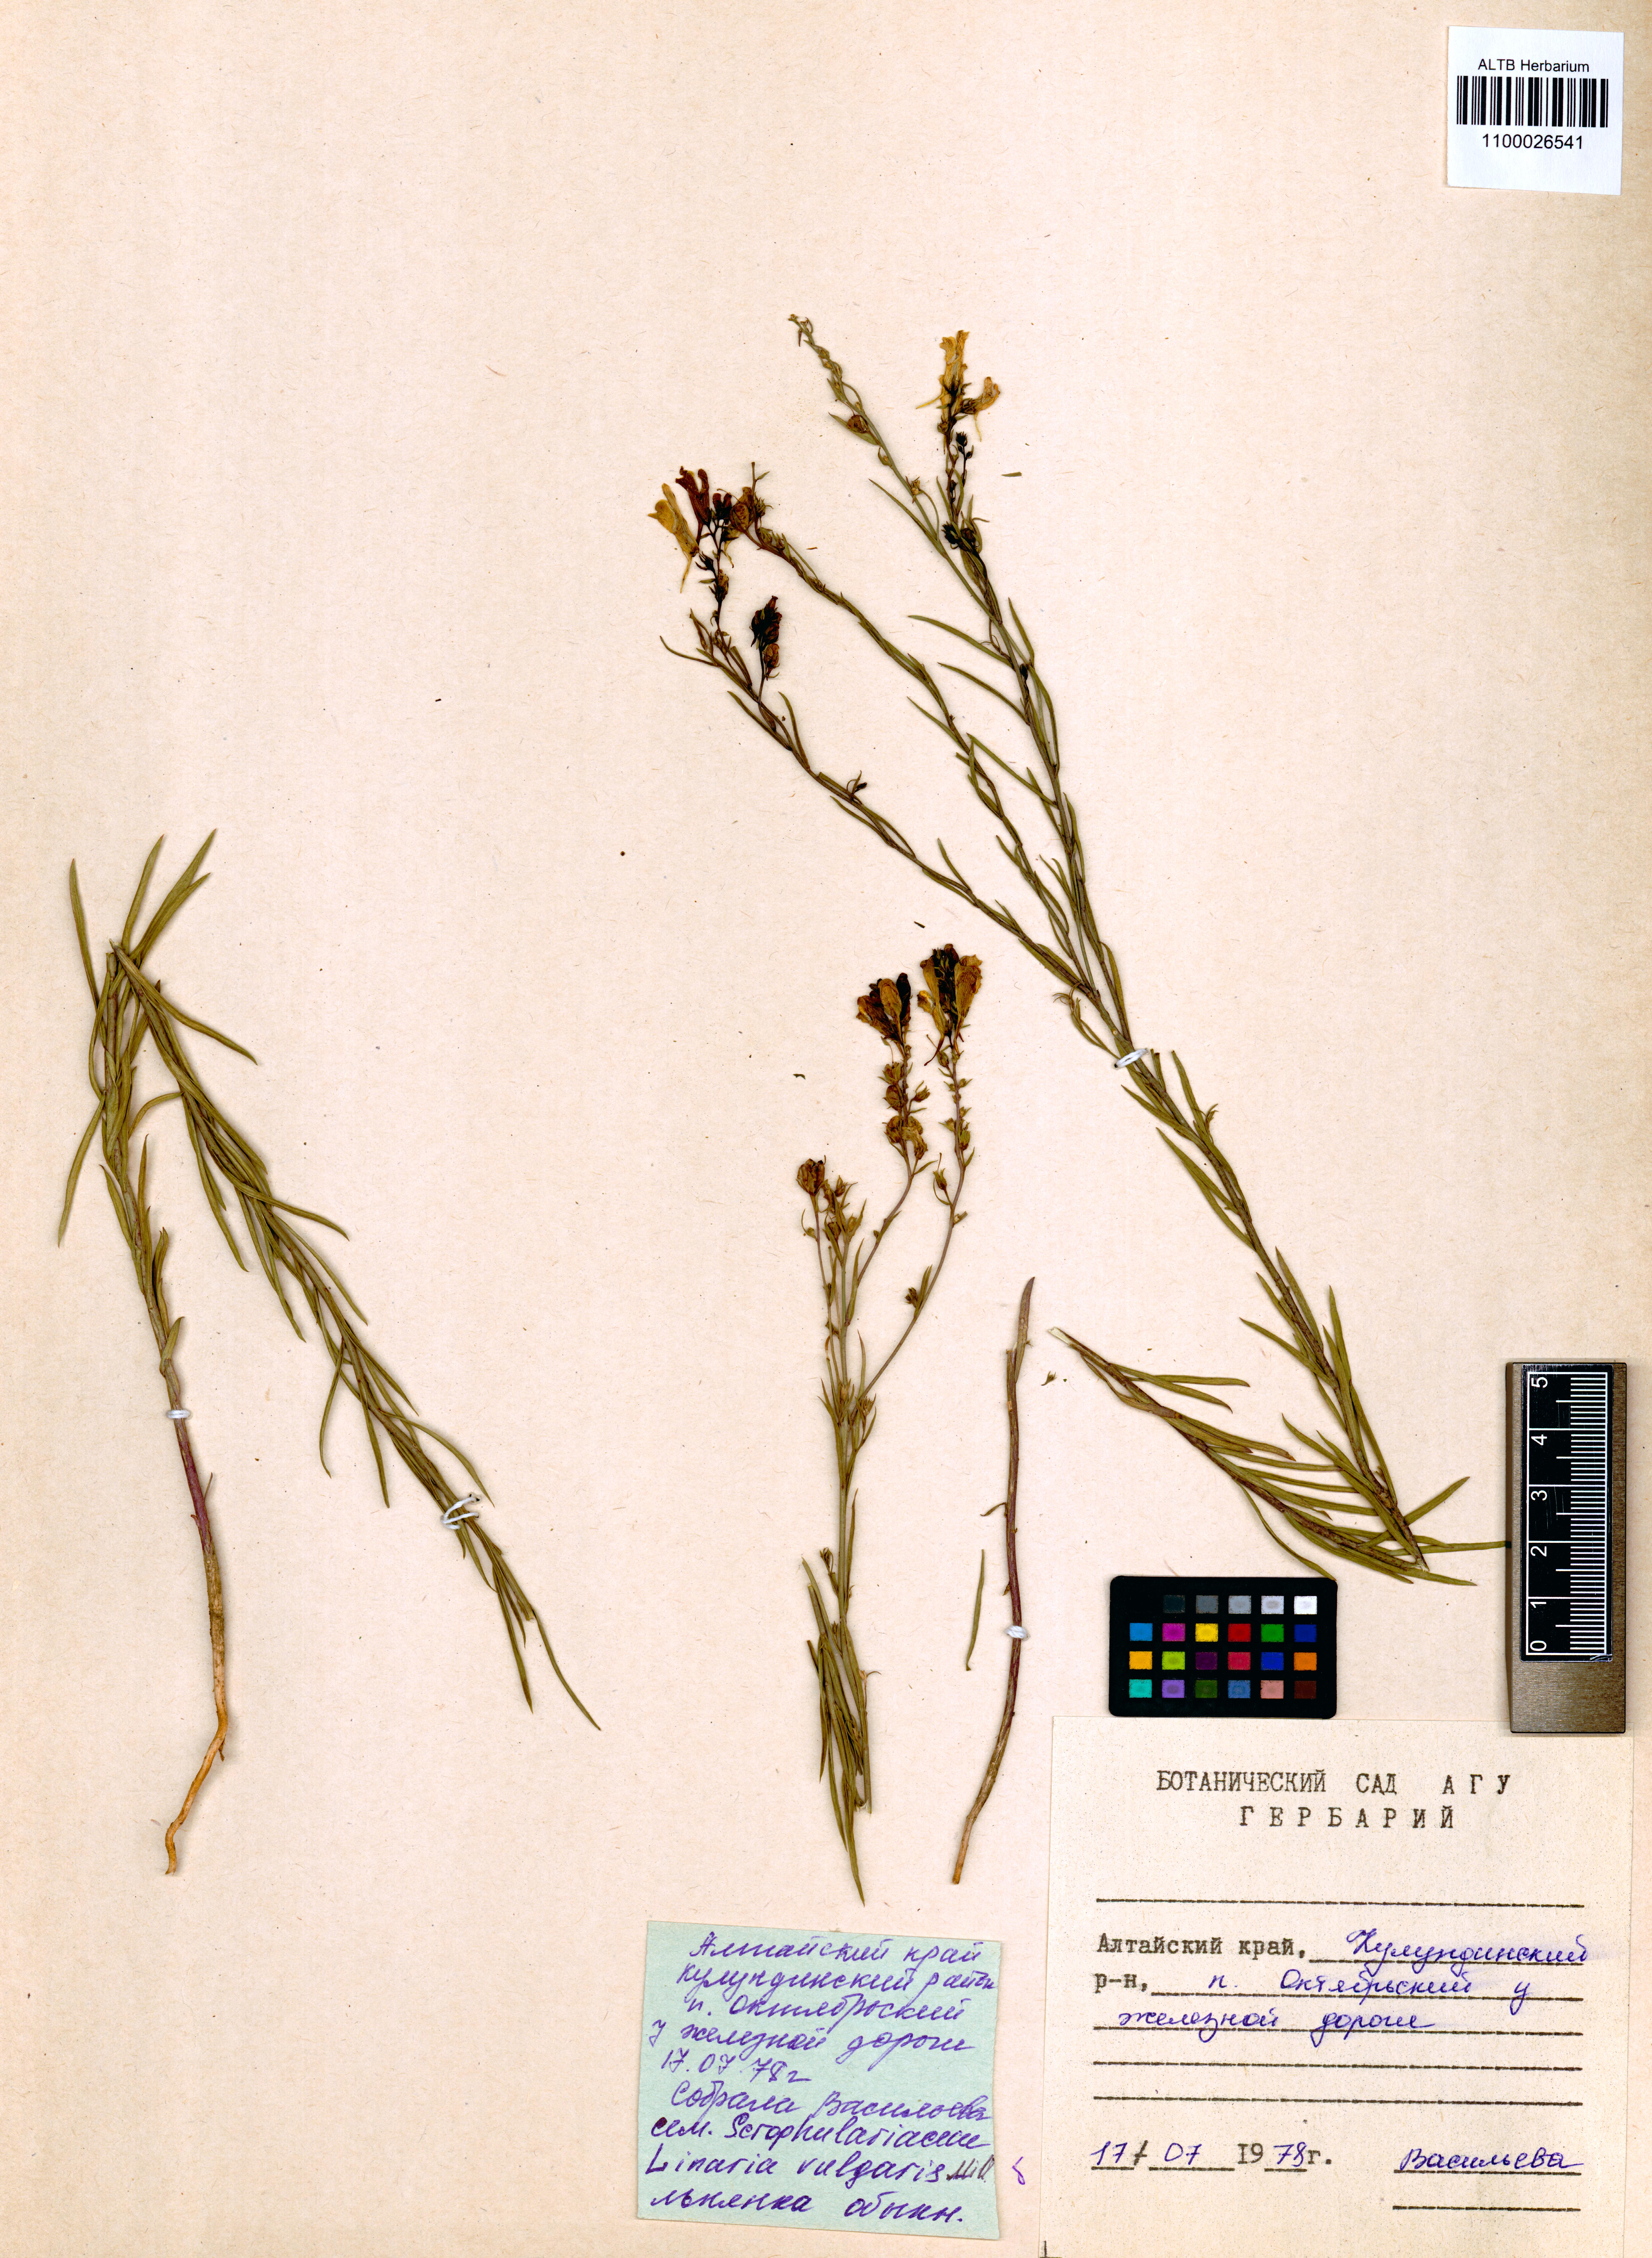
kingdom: Plantae
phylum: Tracheophyta
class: Magnoliopsida
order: Lamiales
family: Plantaginaceae
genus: Linaria
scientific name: Linaria vulgaris
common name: Butter and eggs
